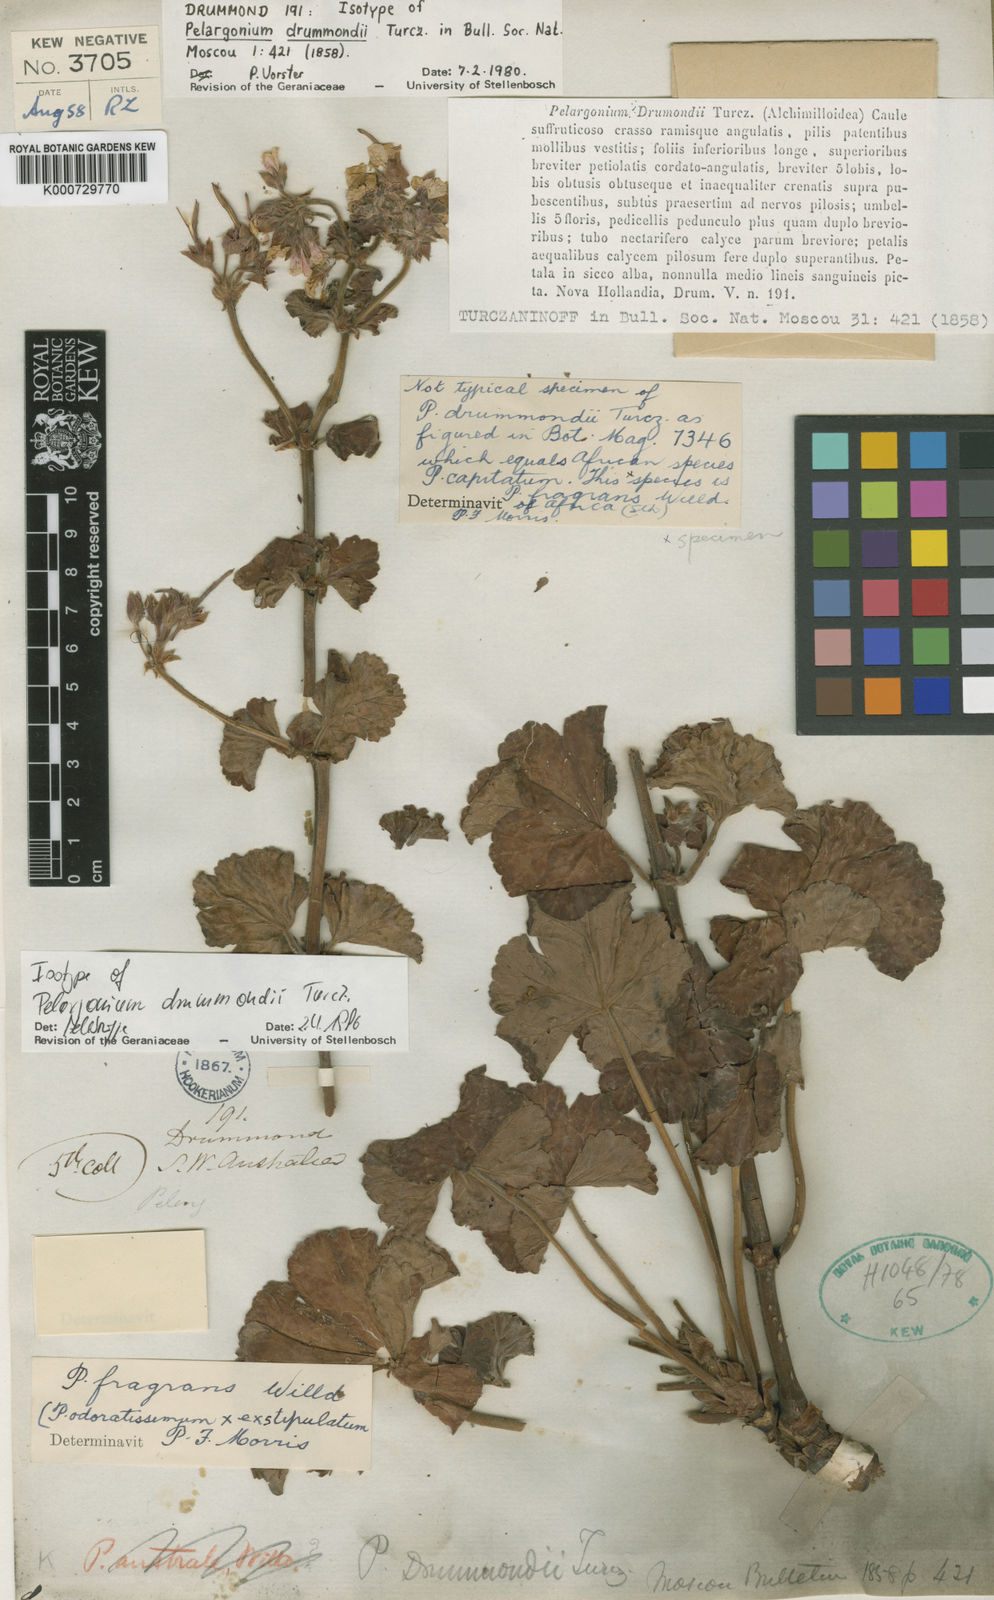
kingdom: Plantae
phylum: Tracheophyta
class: Magnoliopsida
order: Geraniales
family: Geraniaceae
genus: Pelargonium
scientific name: Pelargonium
